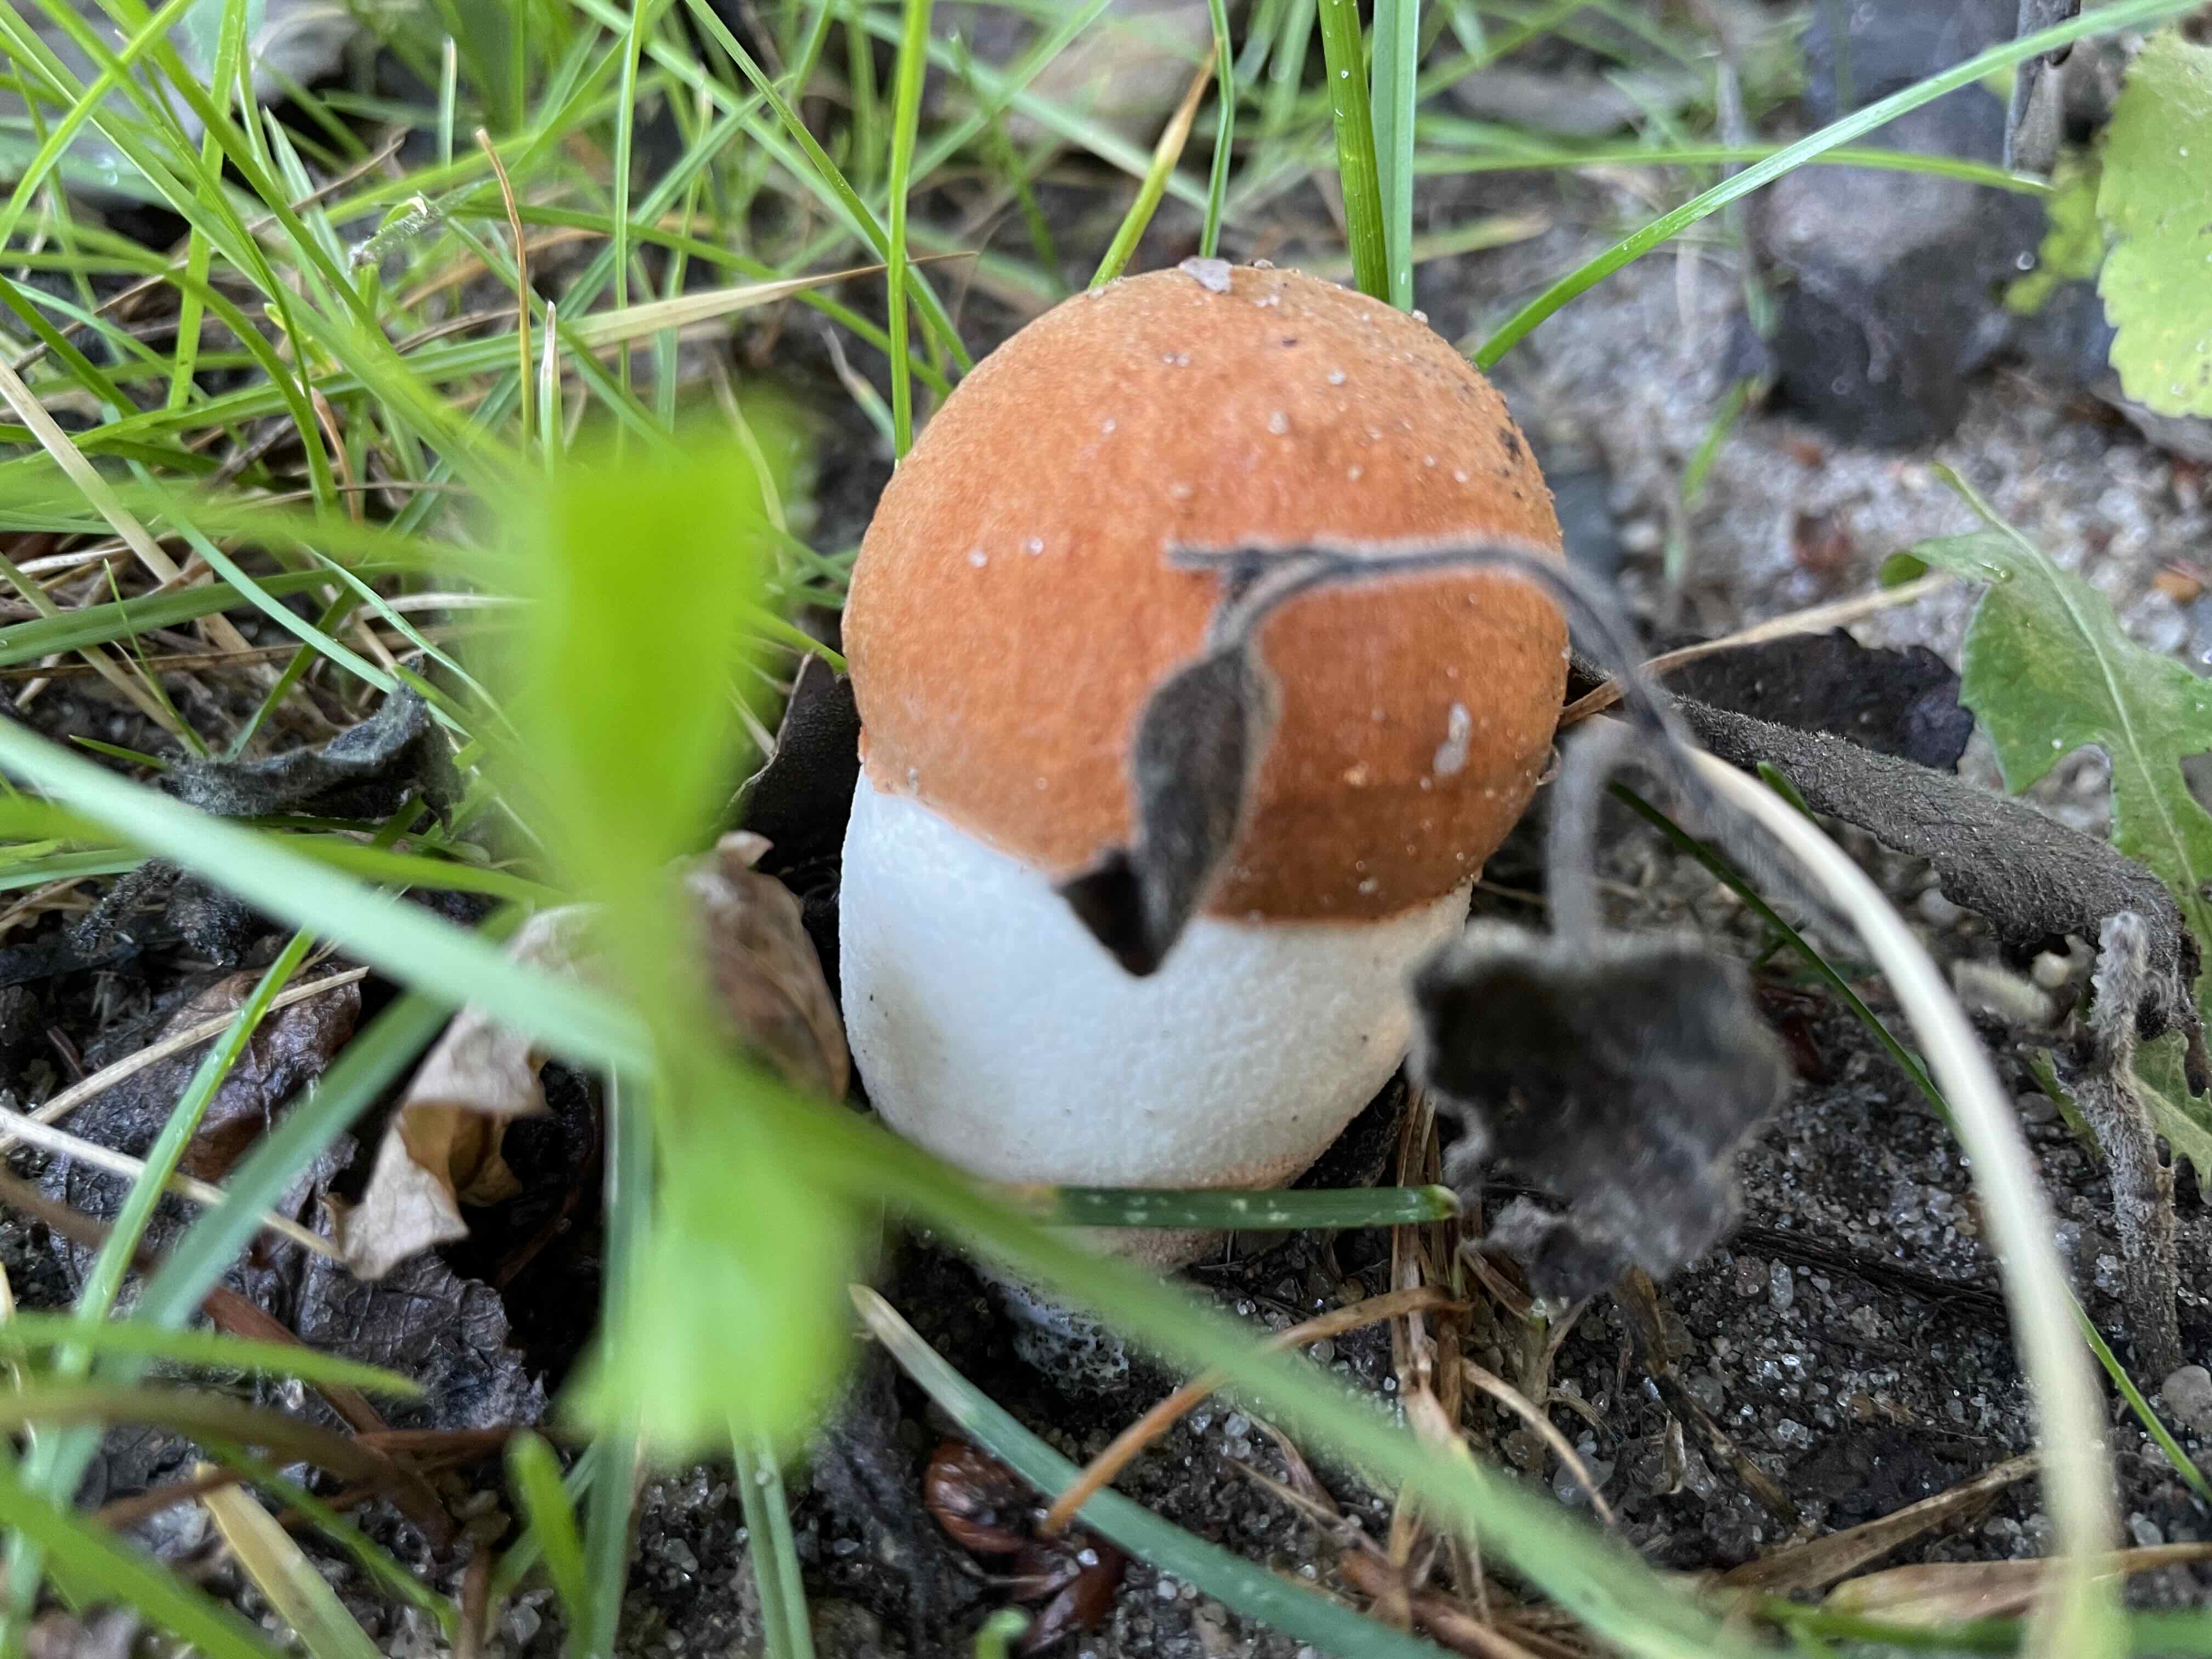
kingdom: Fungi
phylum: Basidiomycota
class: Agaricomycetes
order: Boletales
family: Boletaceae
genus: Leccinum
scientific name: Leccinum albostipitatum
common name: aspe-skælrørhat
